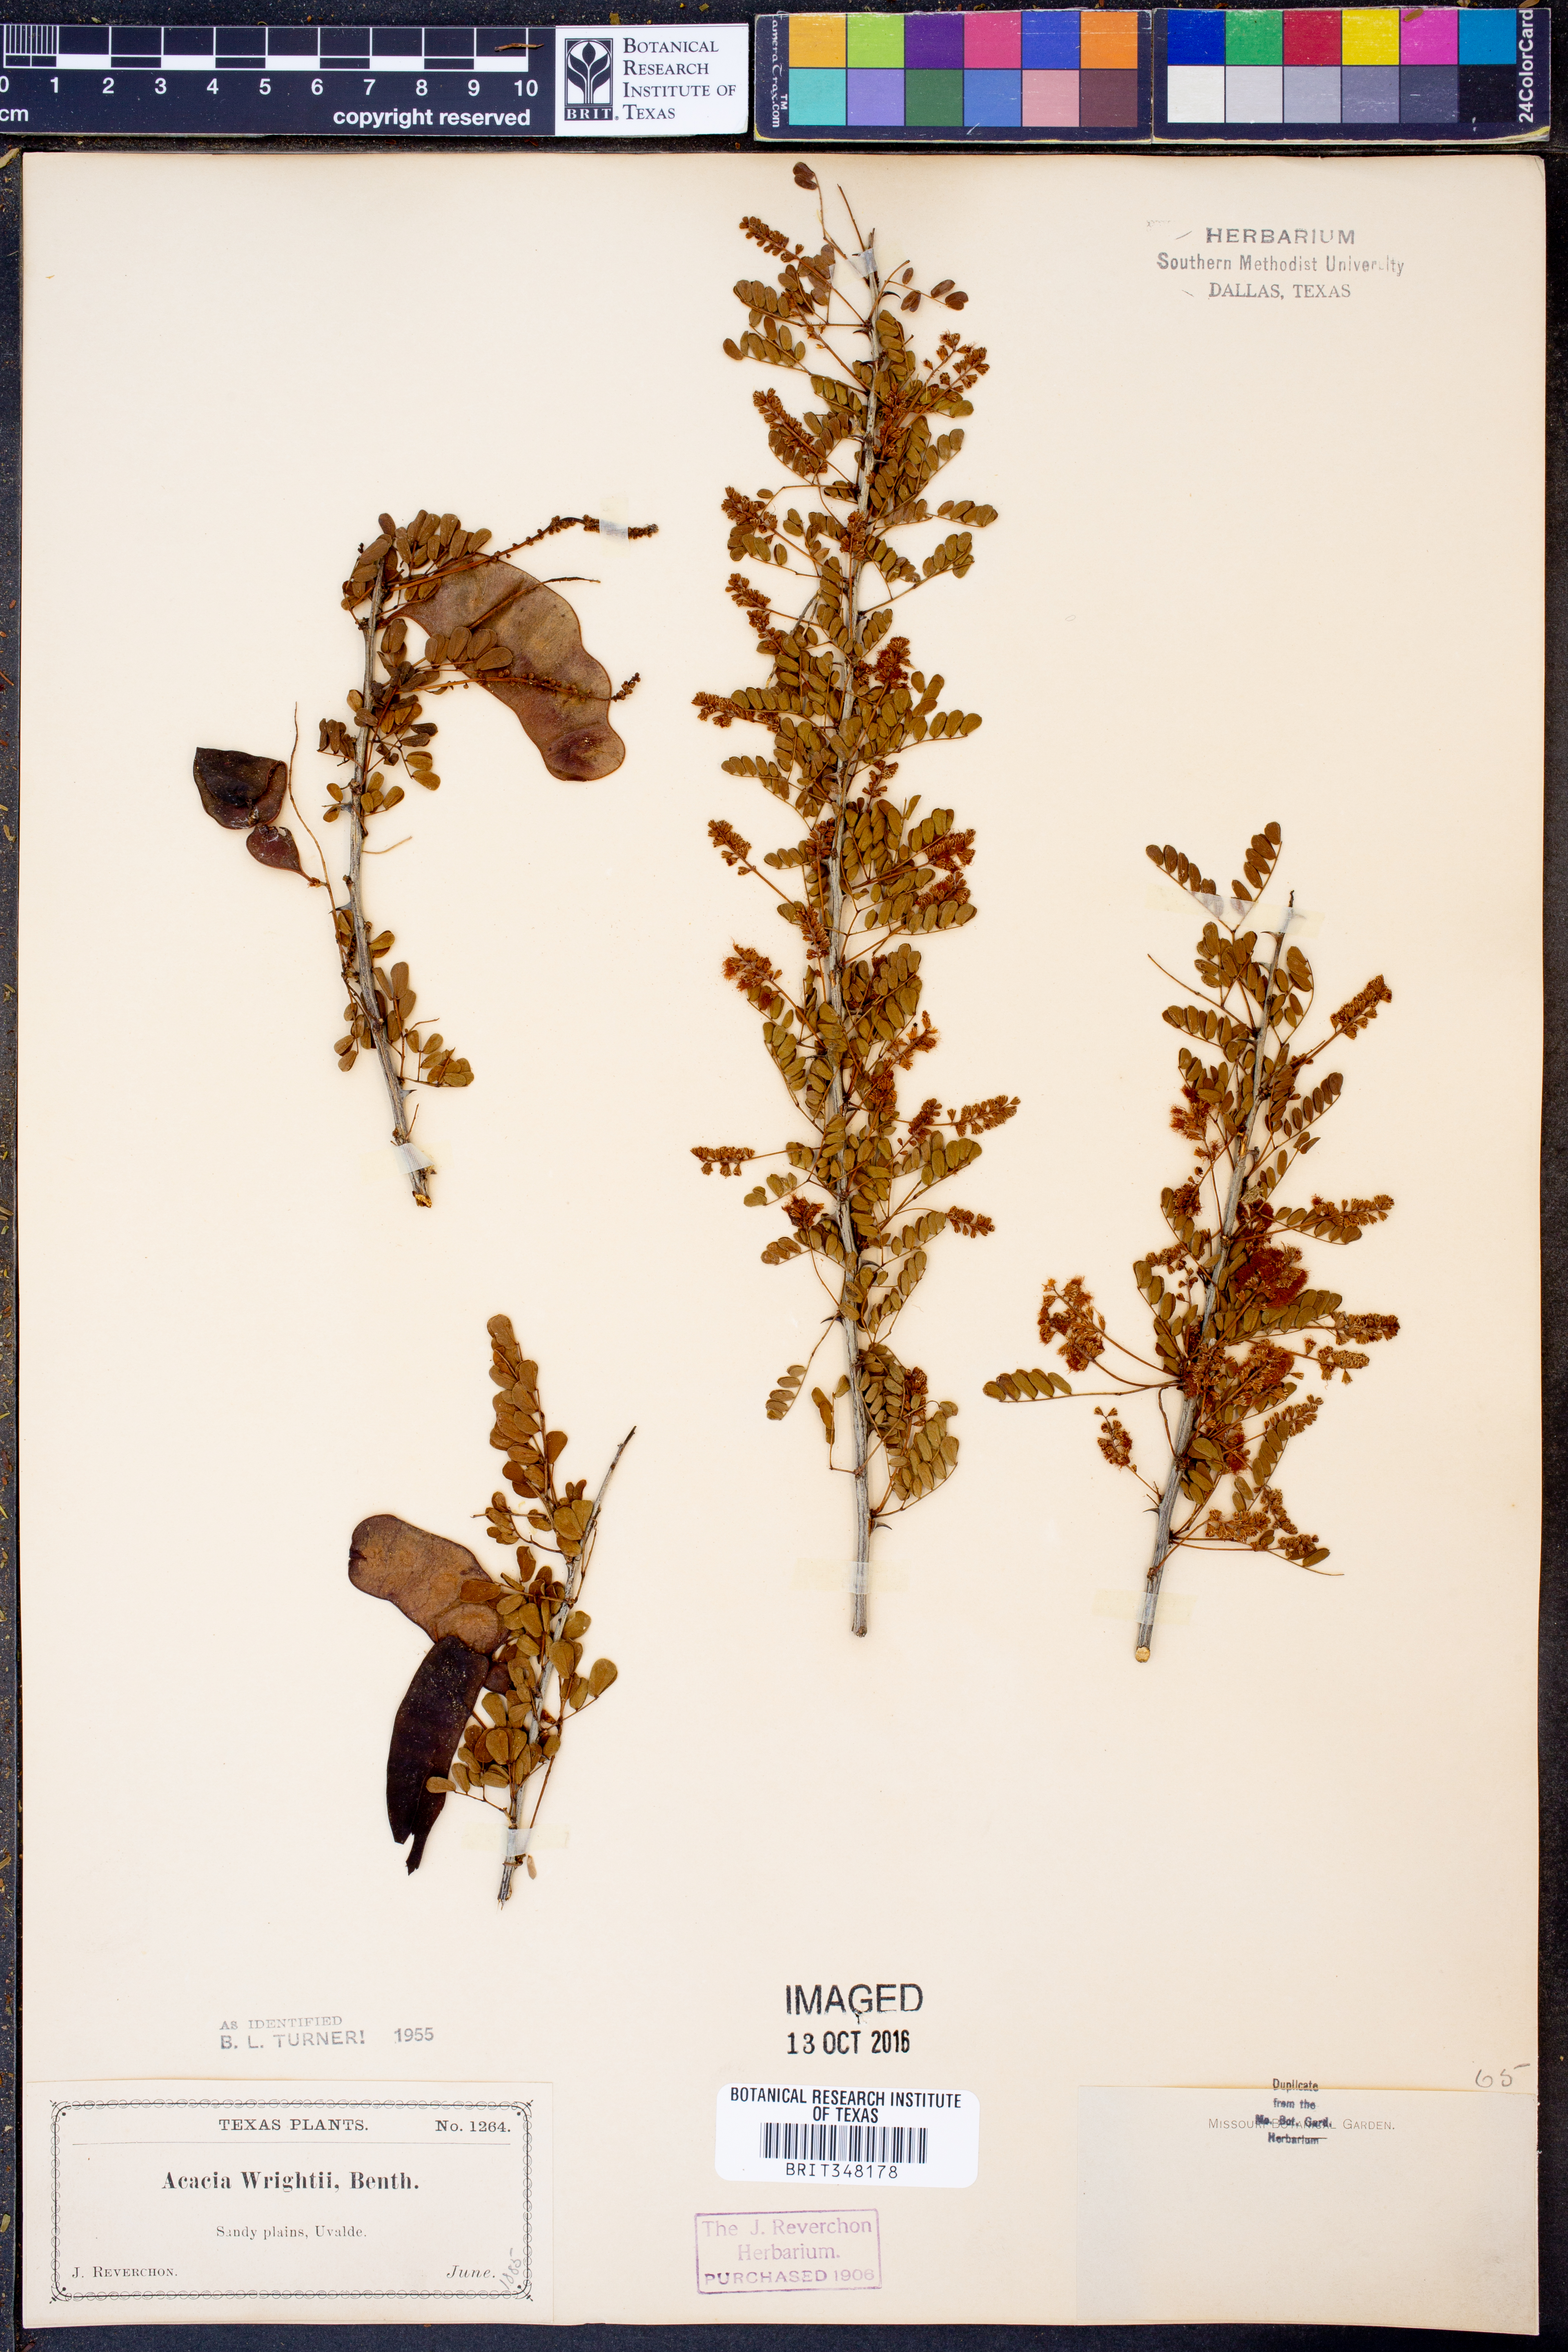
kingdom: Plantae
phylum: Tracheophyta
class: Magnoliopsida
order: Fabales
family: Fabaceae
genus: Senegalia
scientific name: Senegalia wrightii
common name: Texas cat's-claw
